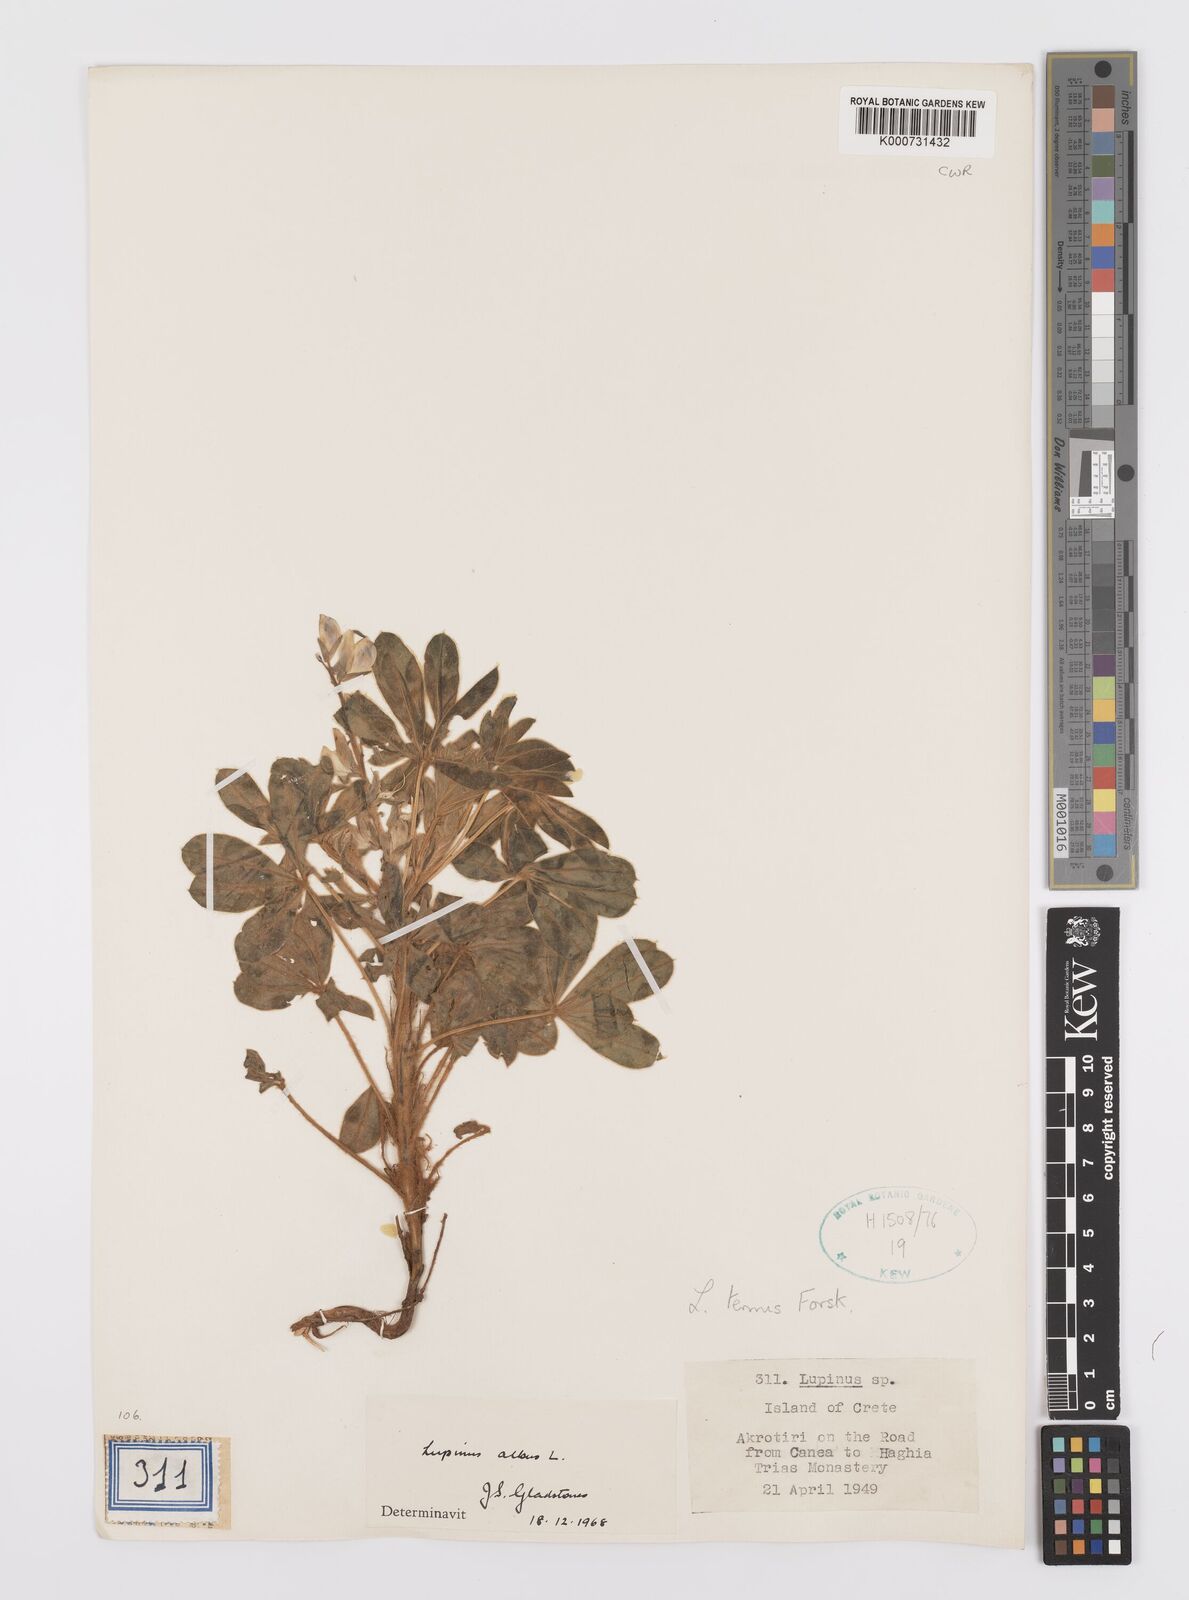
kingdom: Plantae
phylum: Tracheophyta
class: Magnoliopsida
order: Fabales
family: Fabaceae
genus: Lupinus
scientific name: Lupinus albus
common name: White lupin
